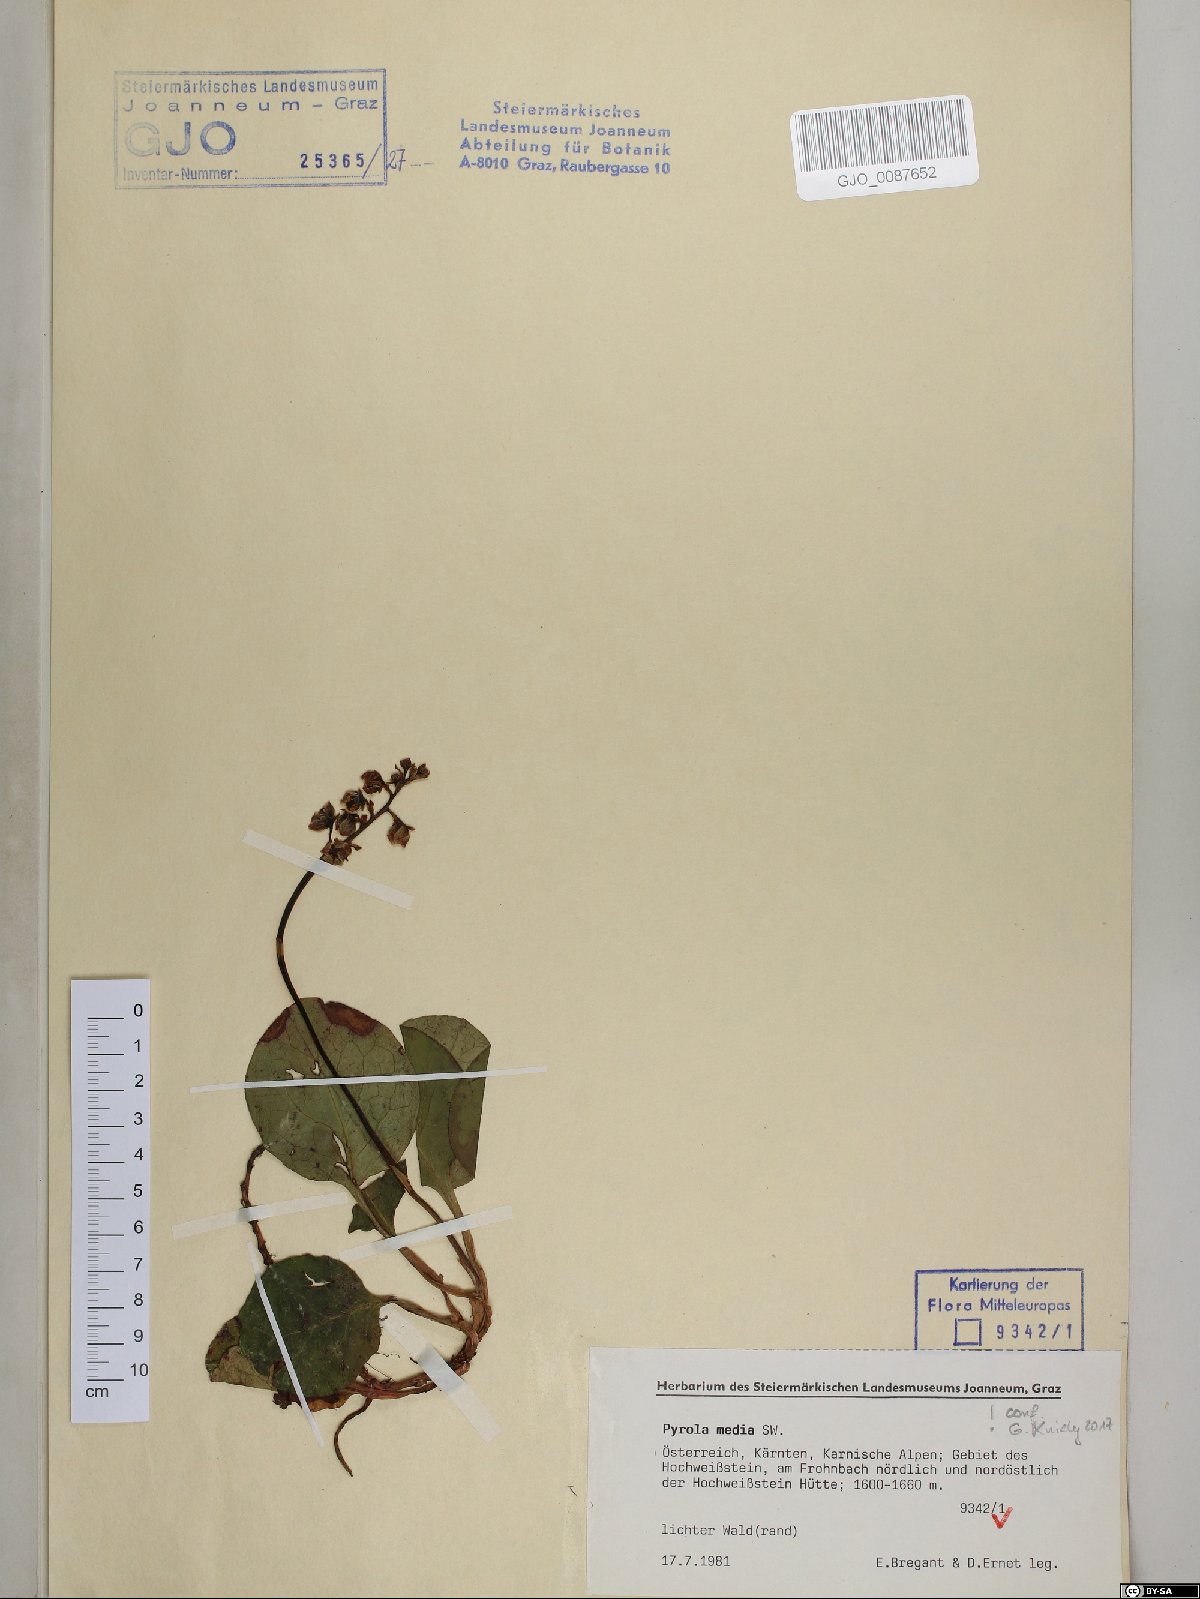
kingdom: Plantae
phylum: Tracheophyta
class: Magnoliopsida
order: Ericales
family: Ericaceae
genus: Pyrola
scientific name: Pyrola media
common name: Intermediate wintergreen
